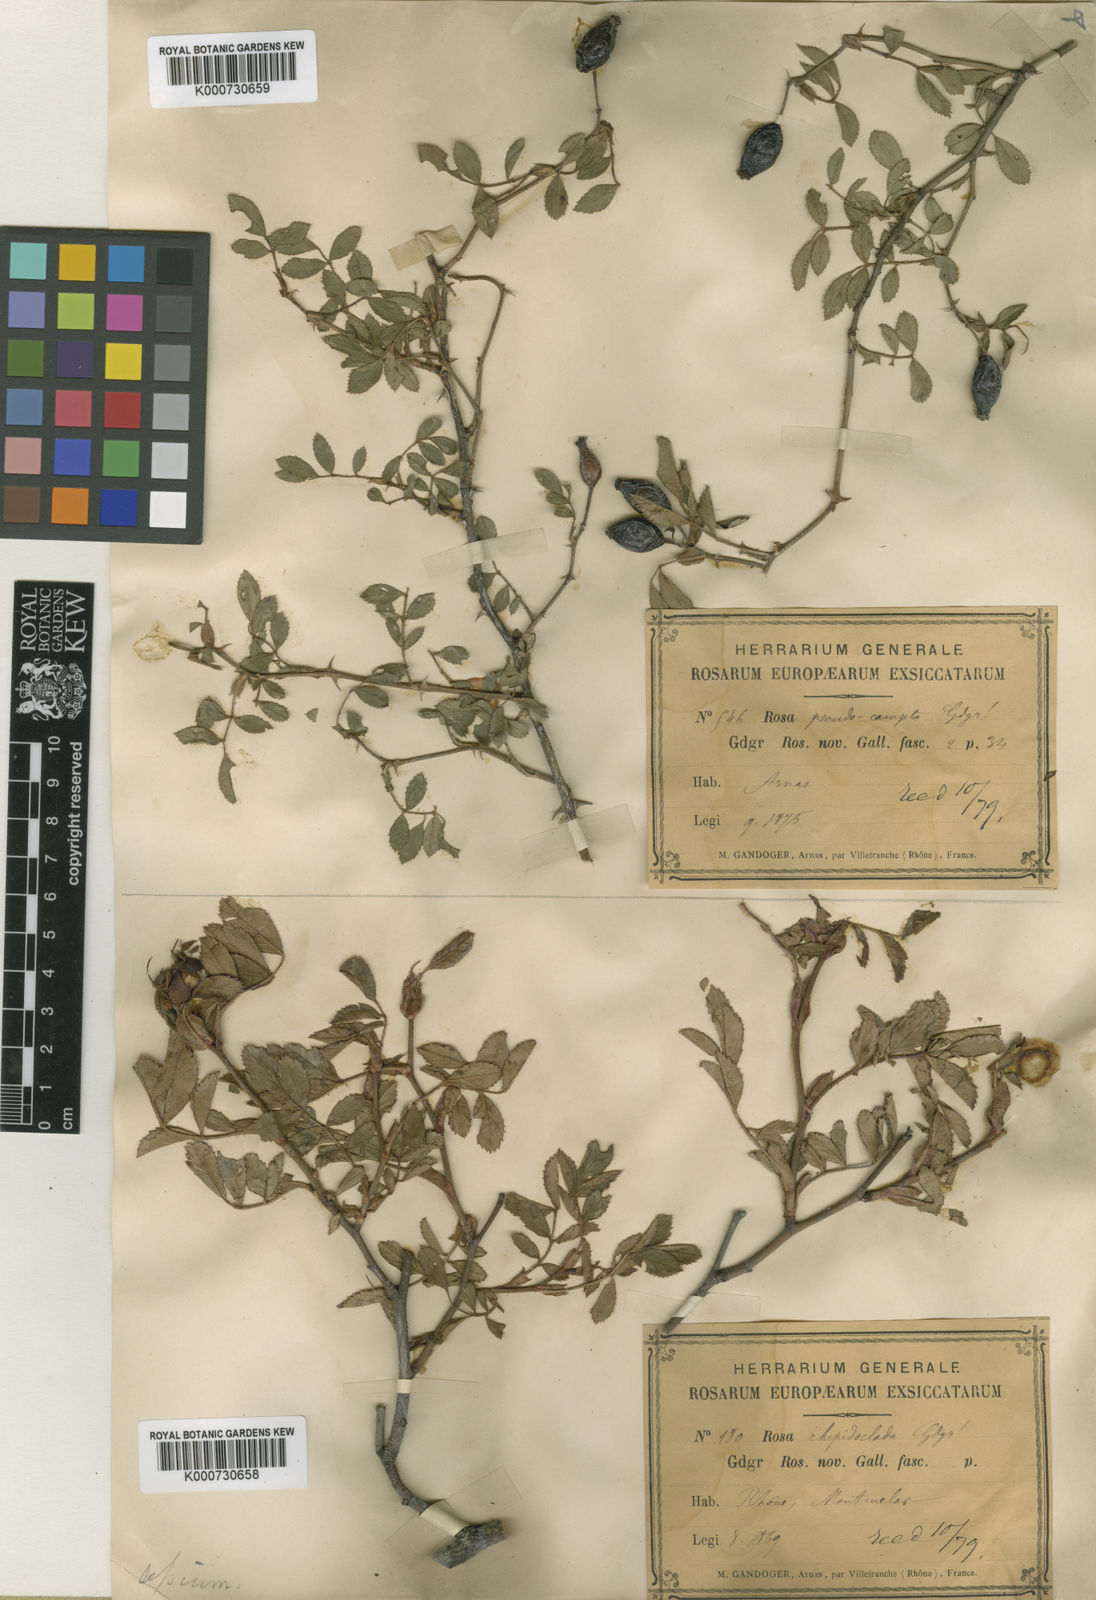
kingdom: Plantae
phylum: Tracheophyta
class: Magnoliopsida
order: Rosales
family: Rosaceae
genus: Rosa
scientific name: Rosa agrestis
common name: Fieldbriar
